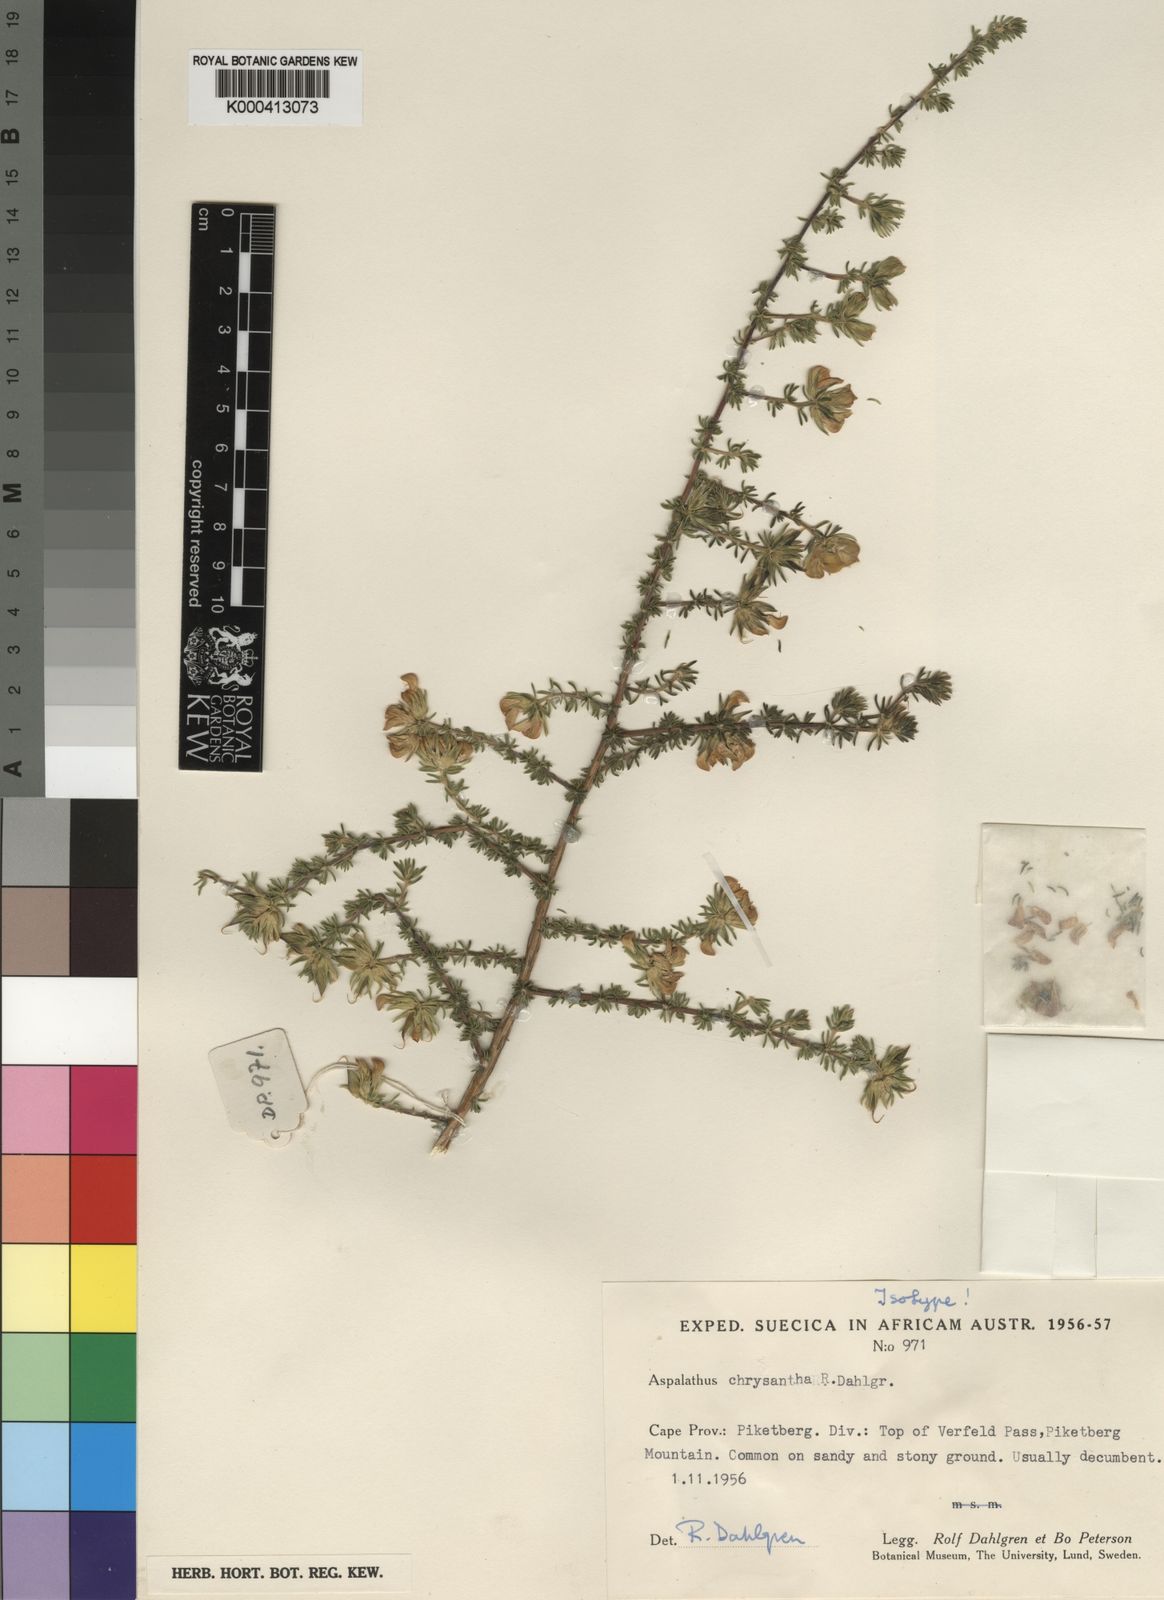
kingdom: Plantae
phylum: Tracheophyta
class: Magnoliopsida
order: Fabales
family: Fabaceae
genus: Aspalathus
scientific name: Aspalathus chrysantha
